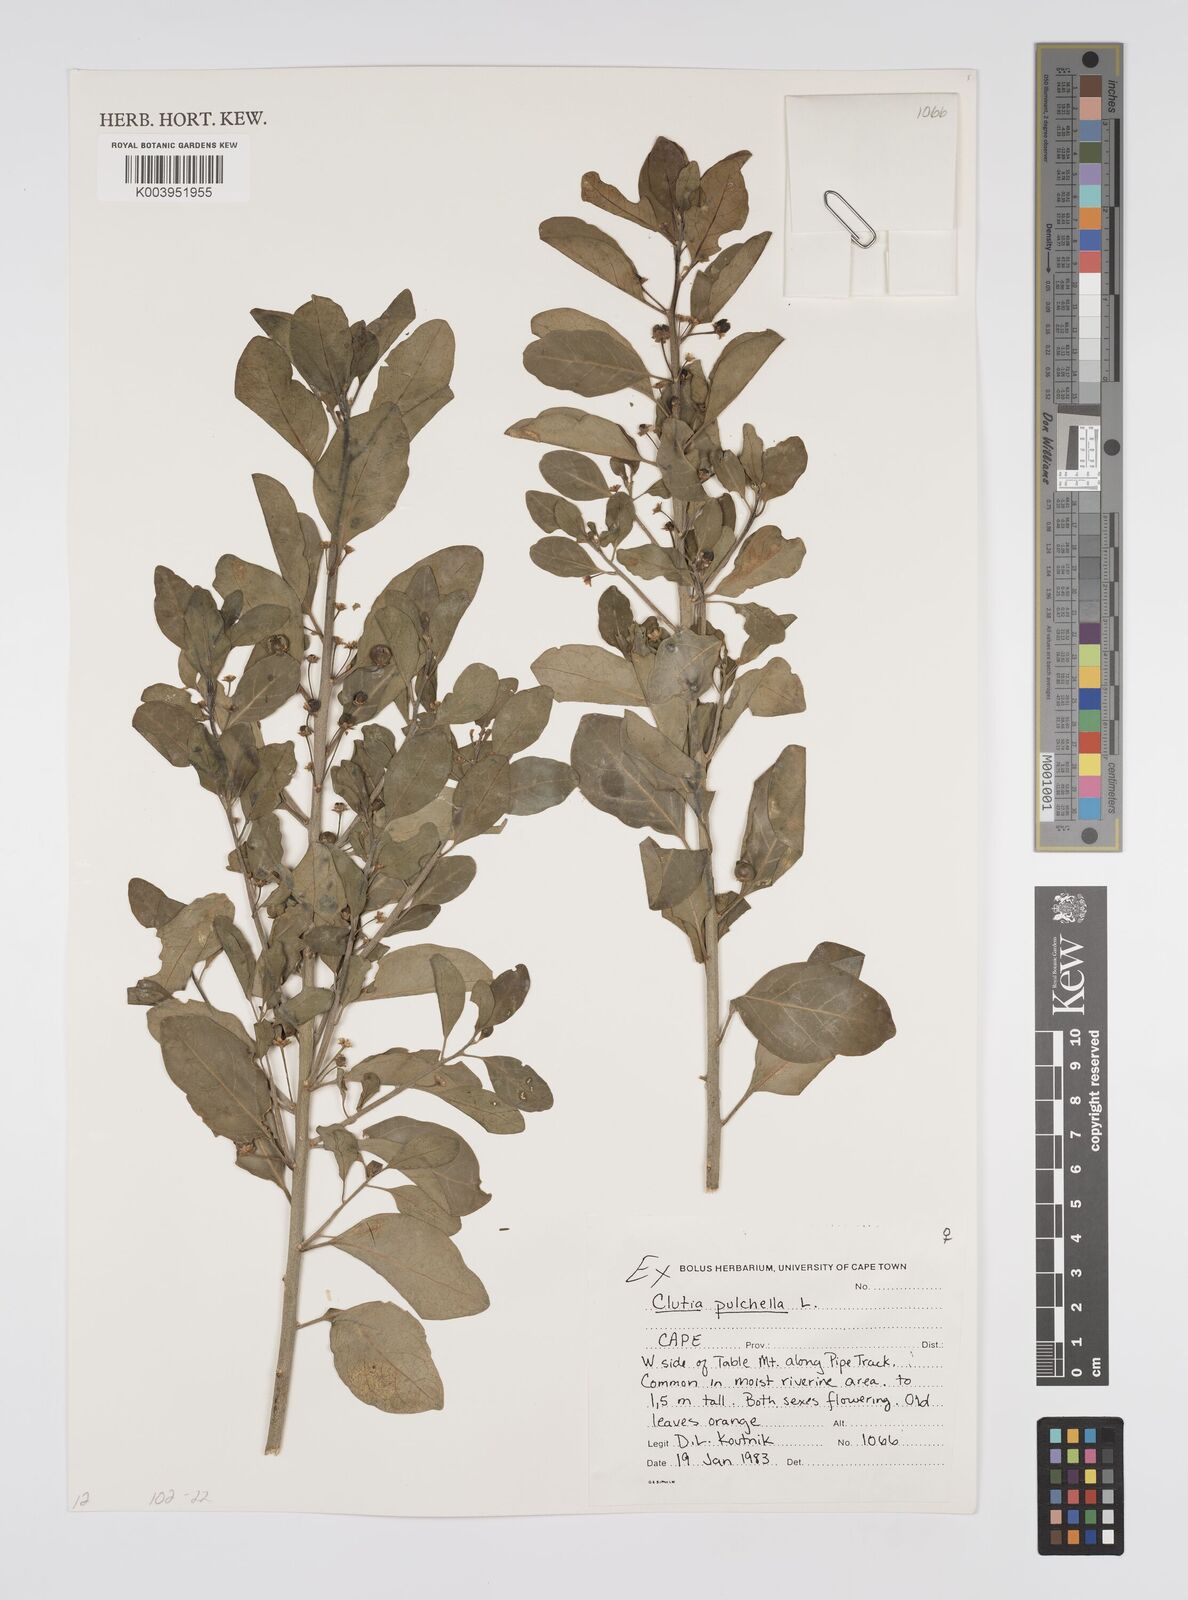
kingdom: Plantae
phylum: Tracheophyta
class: Magnoliopsida
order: Malpighiales
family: Peraceae
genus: Clutia
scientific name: Clutia pulchella
